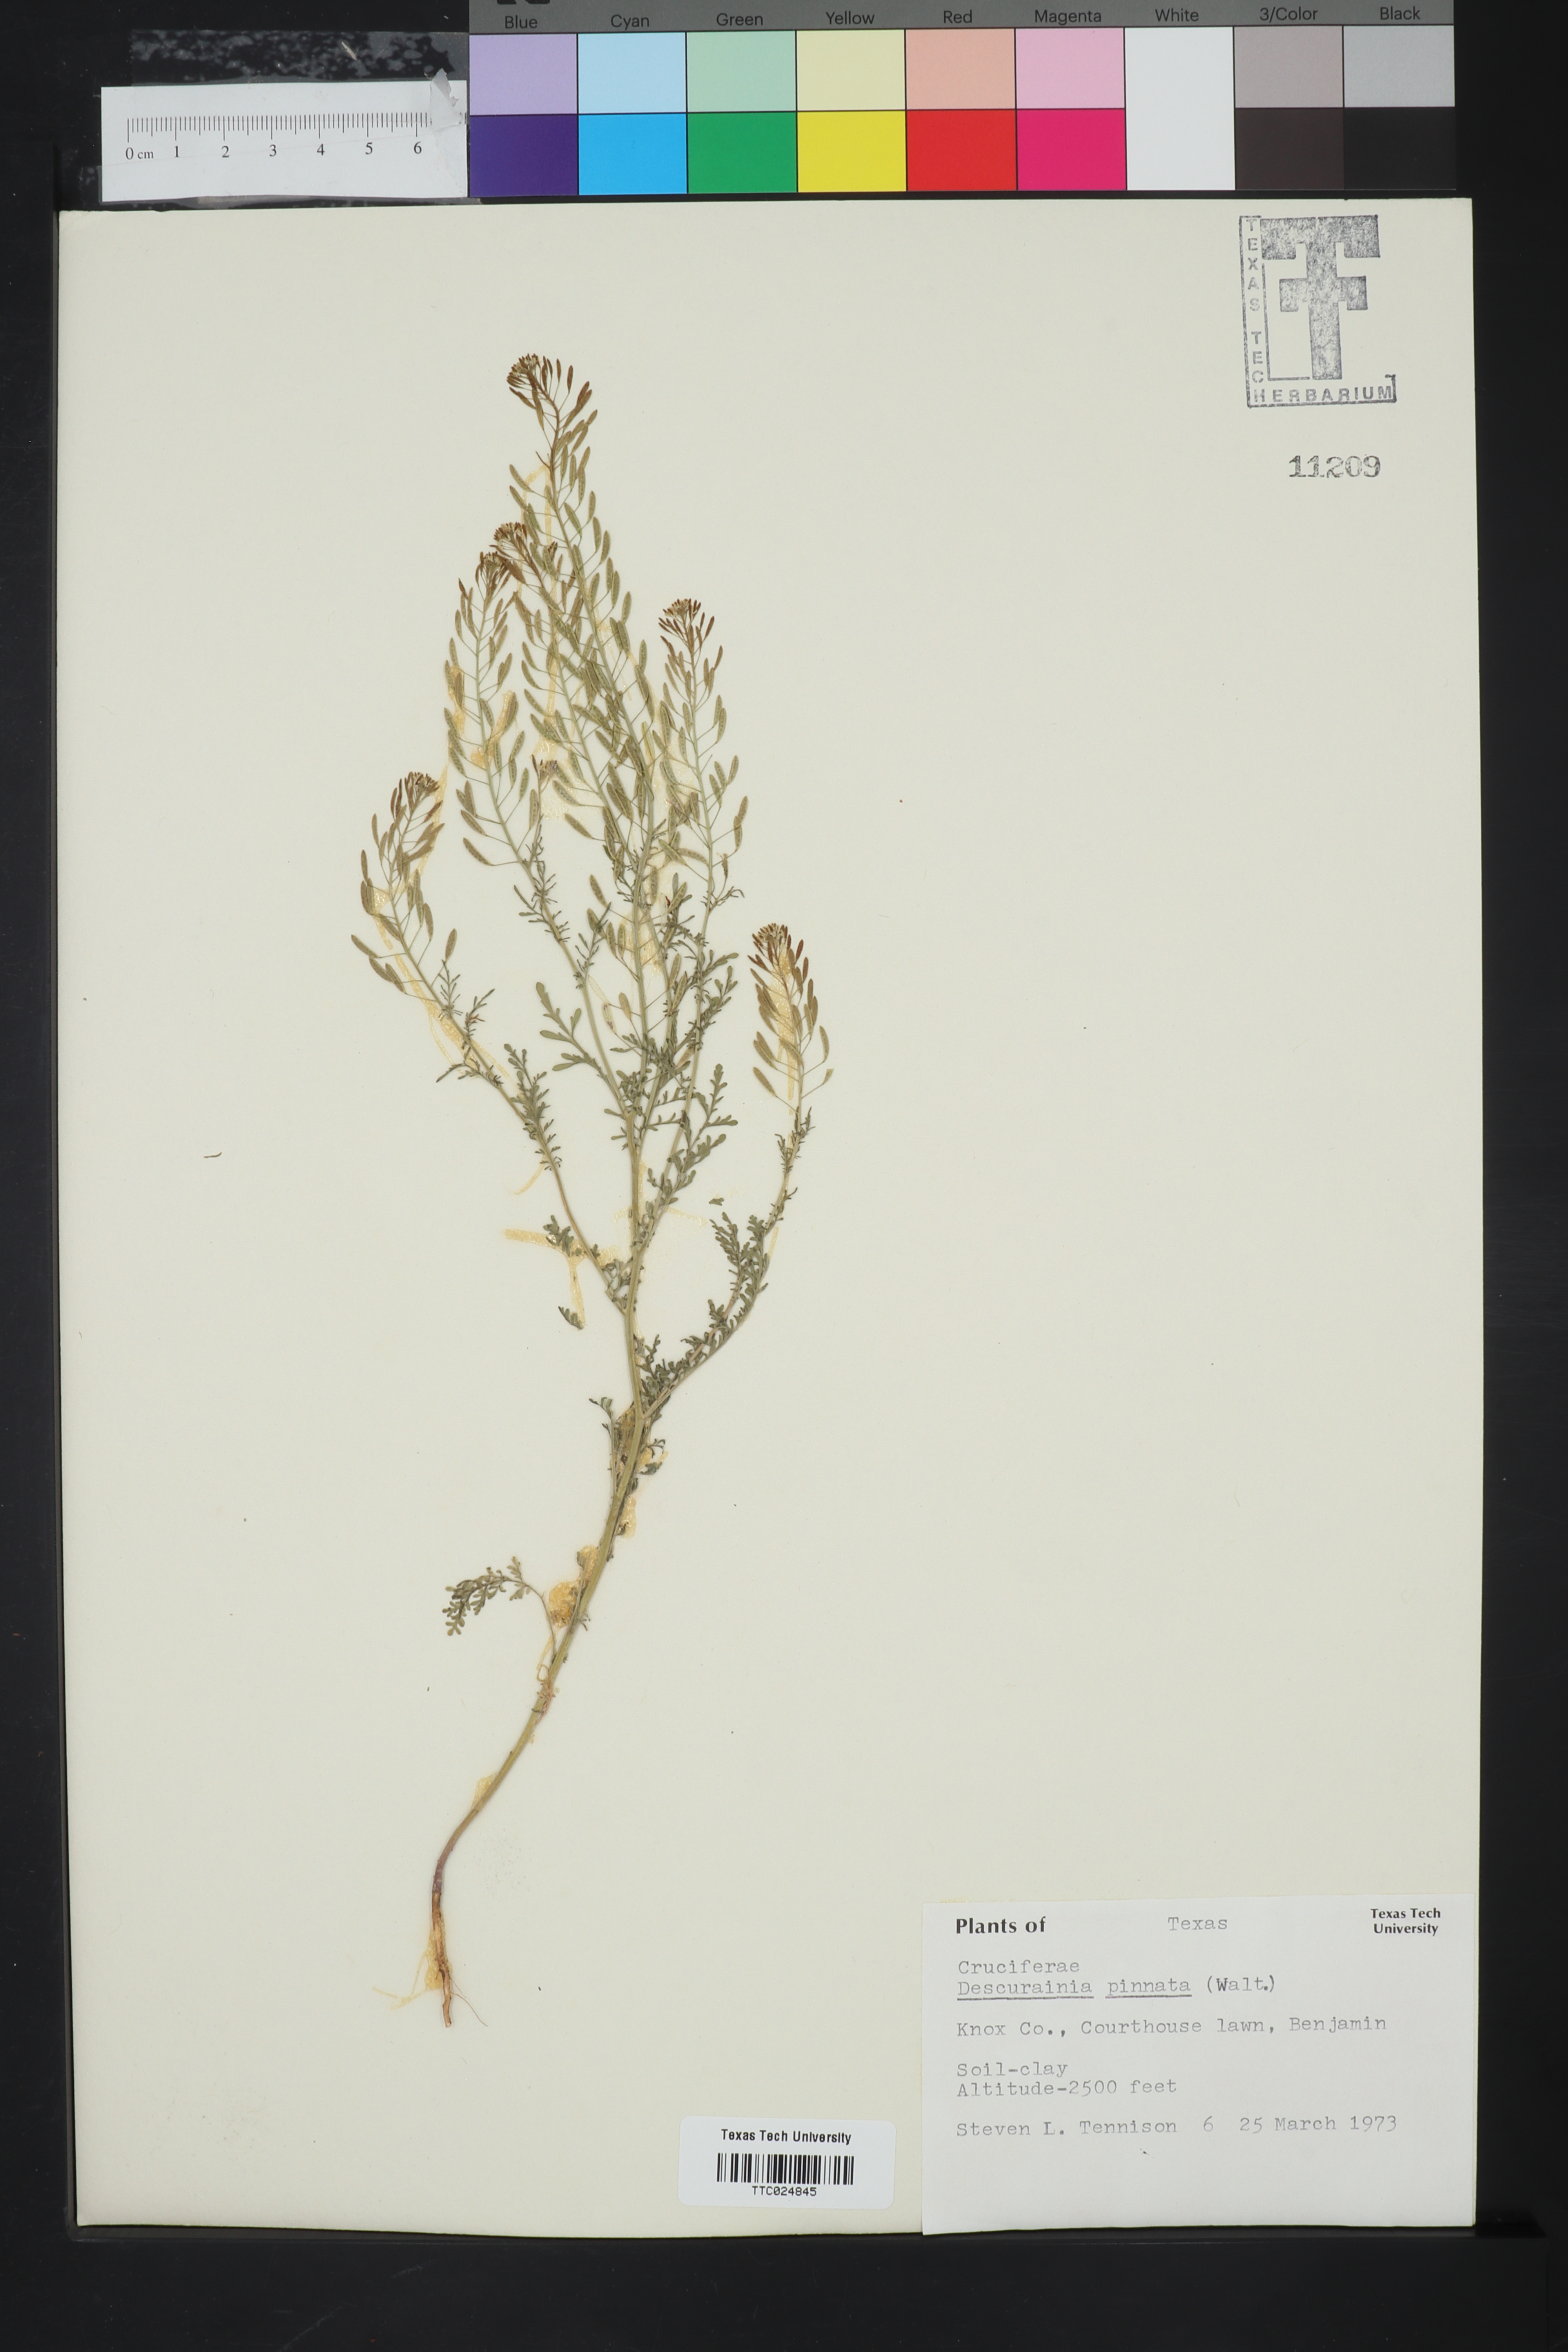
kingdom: Plantae
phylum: Tracheophyta
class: Magnoliopsida
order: Brassicales
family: Brassicaceae
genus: Descurainia
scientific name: Descurainia pinnata
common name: Western tansy mustard
